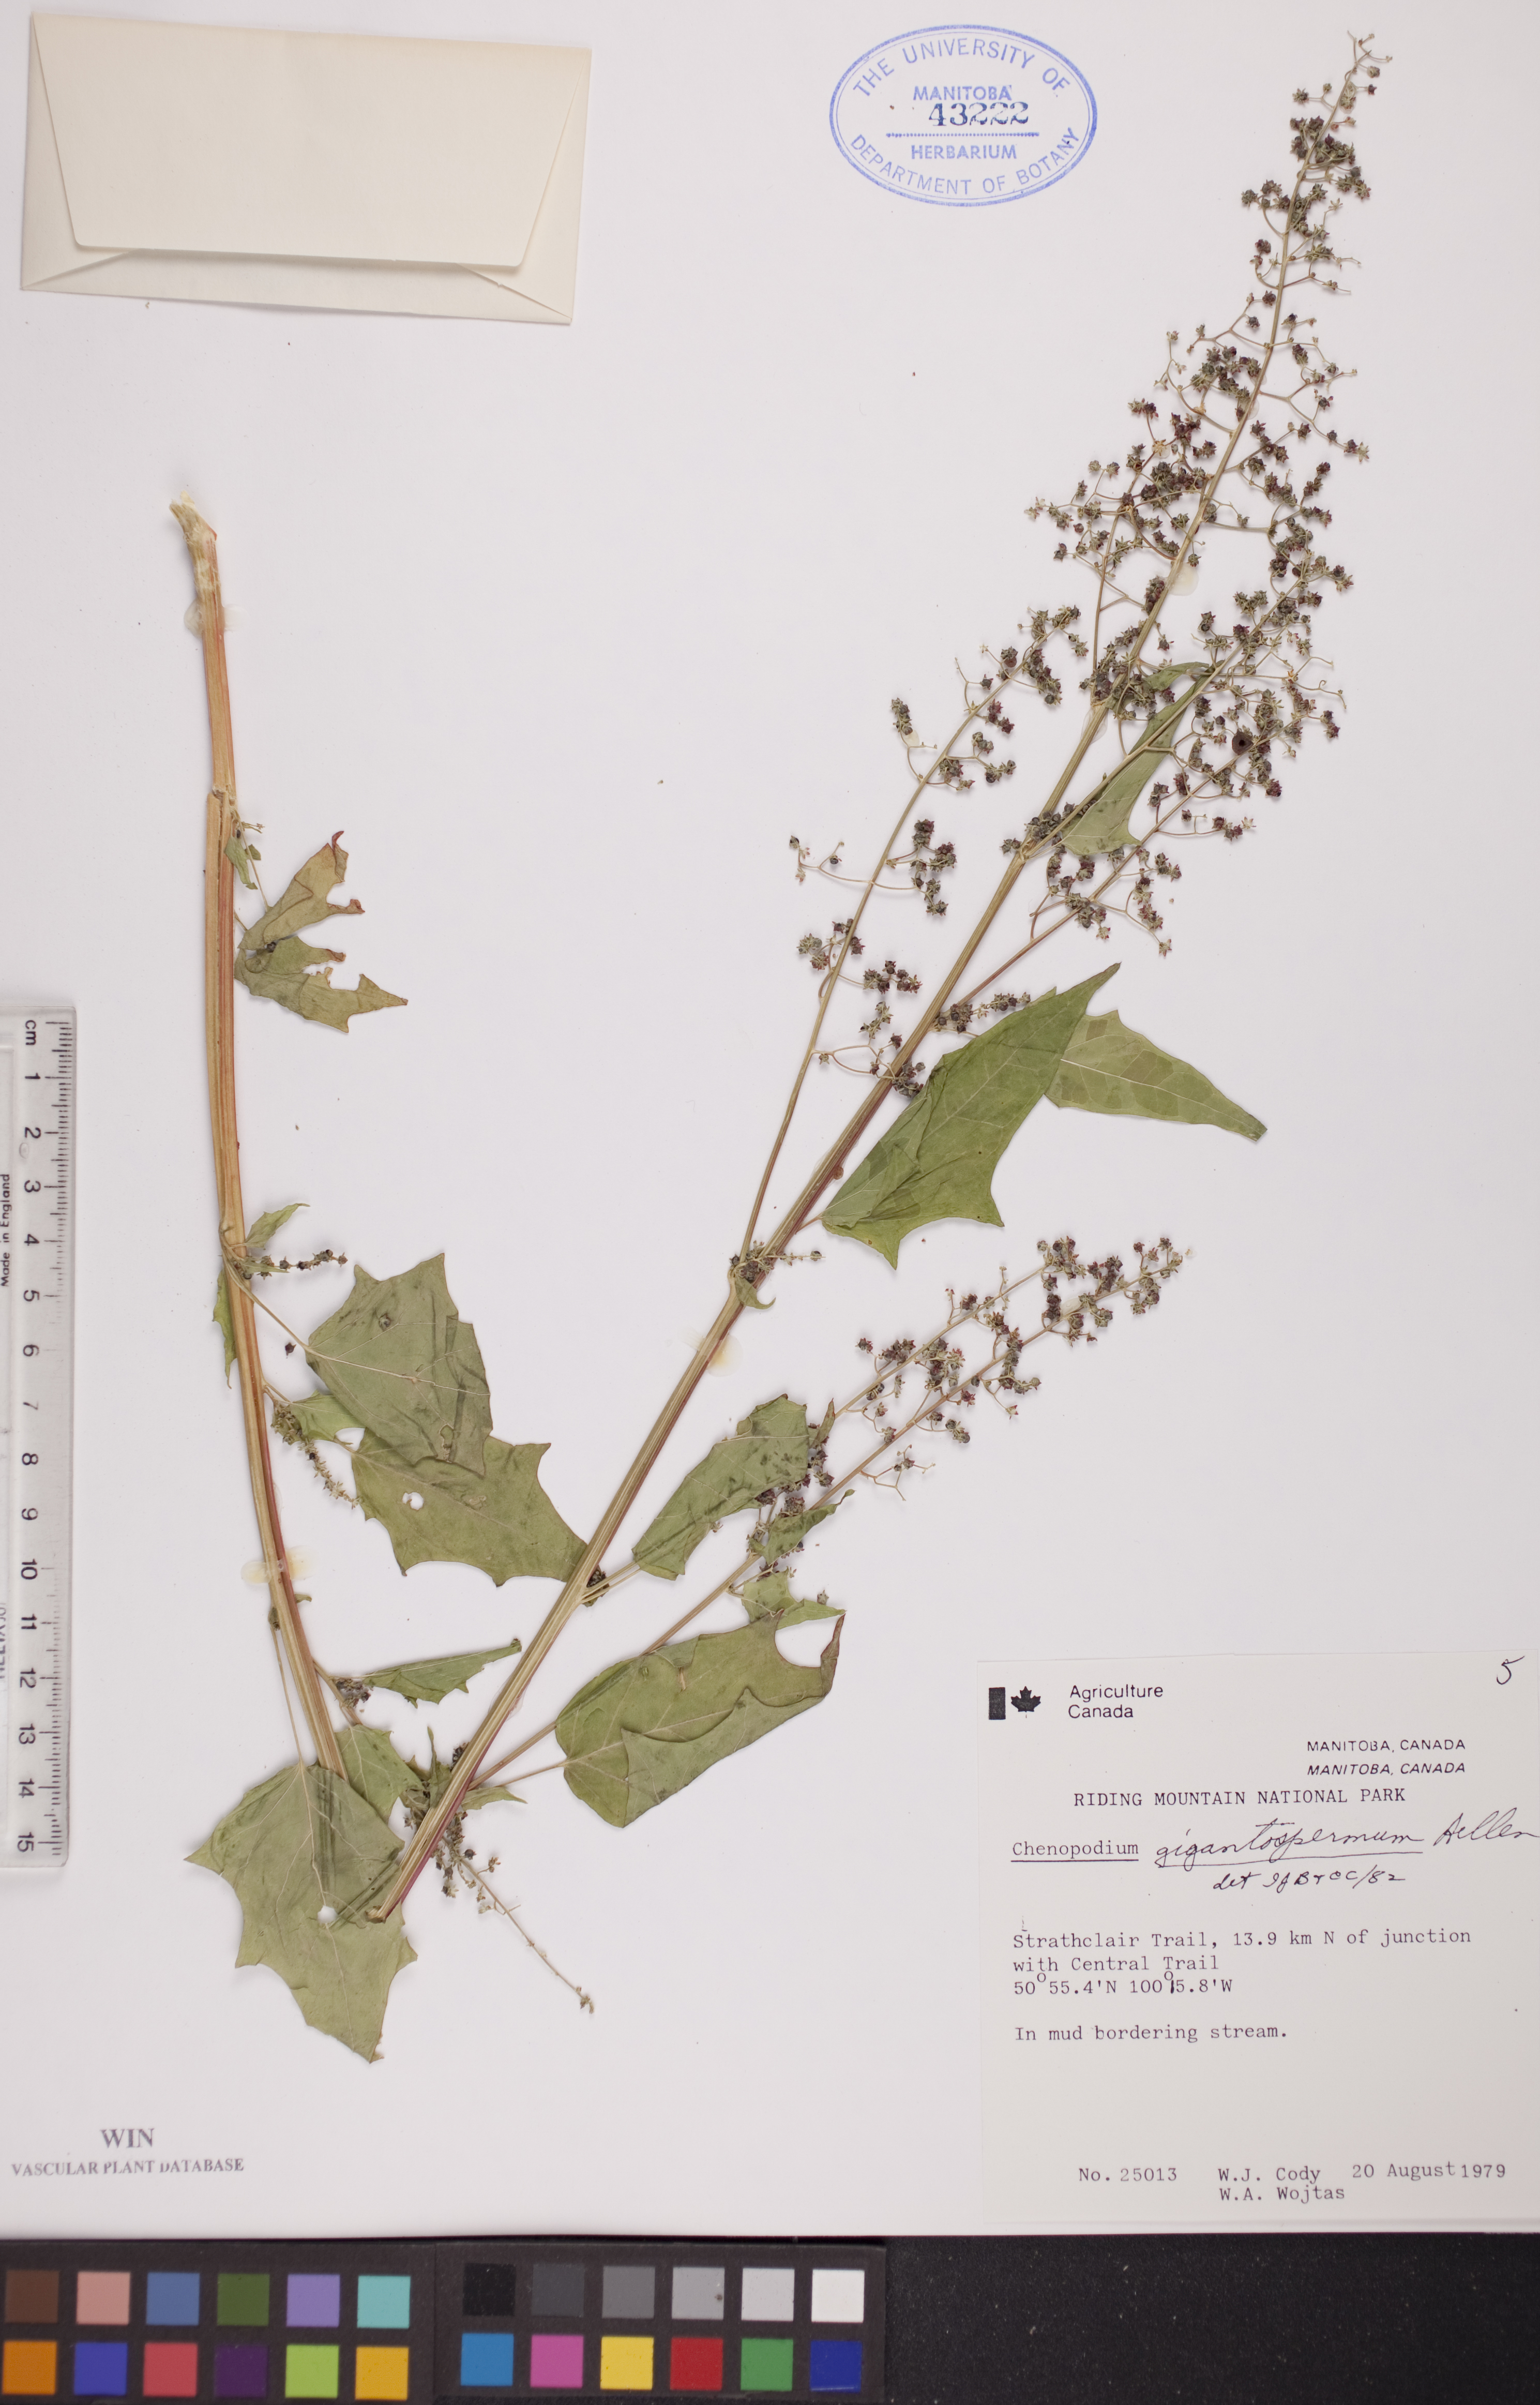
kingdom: Plantae
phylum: Tracheophyta
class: Magnoliopsida
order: Caryophyllales
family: Amaranthaceae
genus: Chenopodiastrum
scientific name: Chenopodiastrum simplex
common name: Large-seed goosefoot
